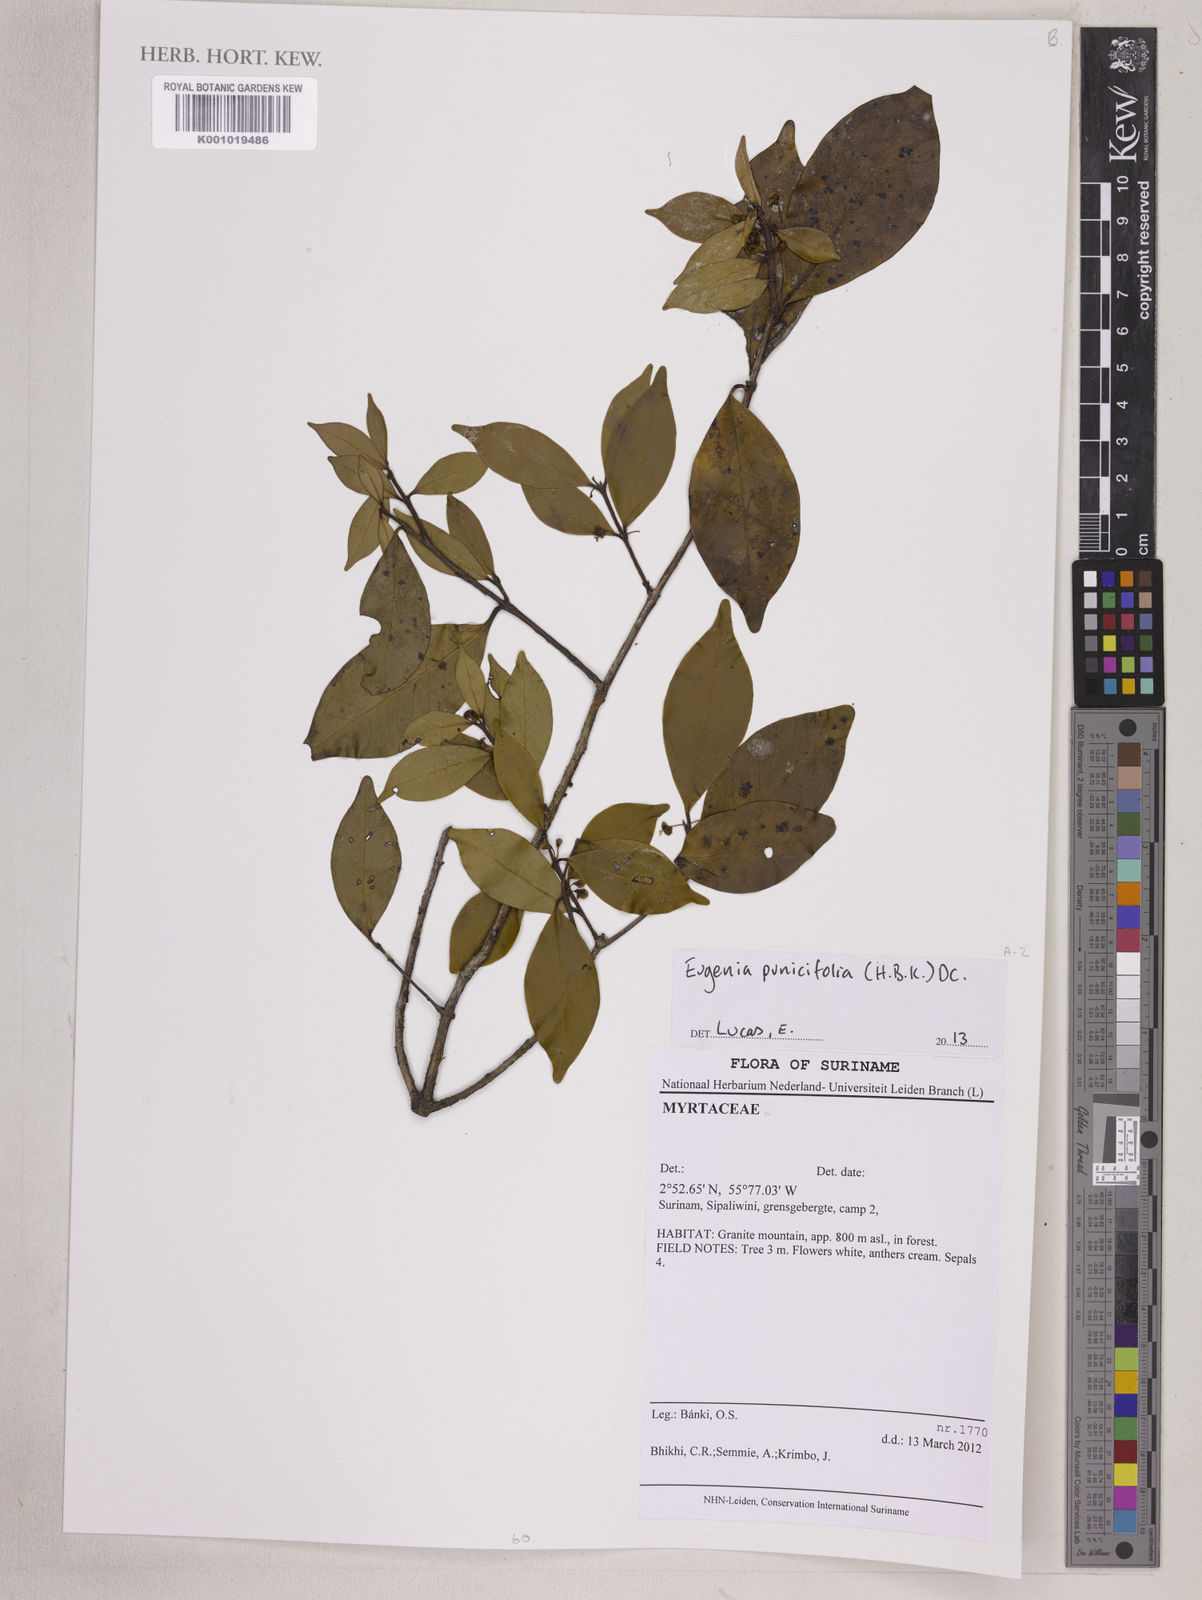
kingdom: Plantae
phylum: Tracheophyta
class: Magnoliopsida
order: Myrtales
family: Myrtaceae
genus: Eugenia
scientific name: Eugenia punicifolia
